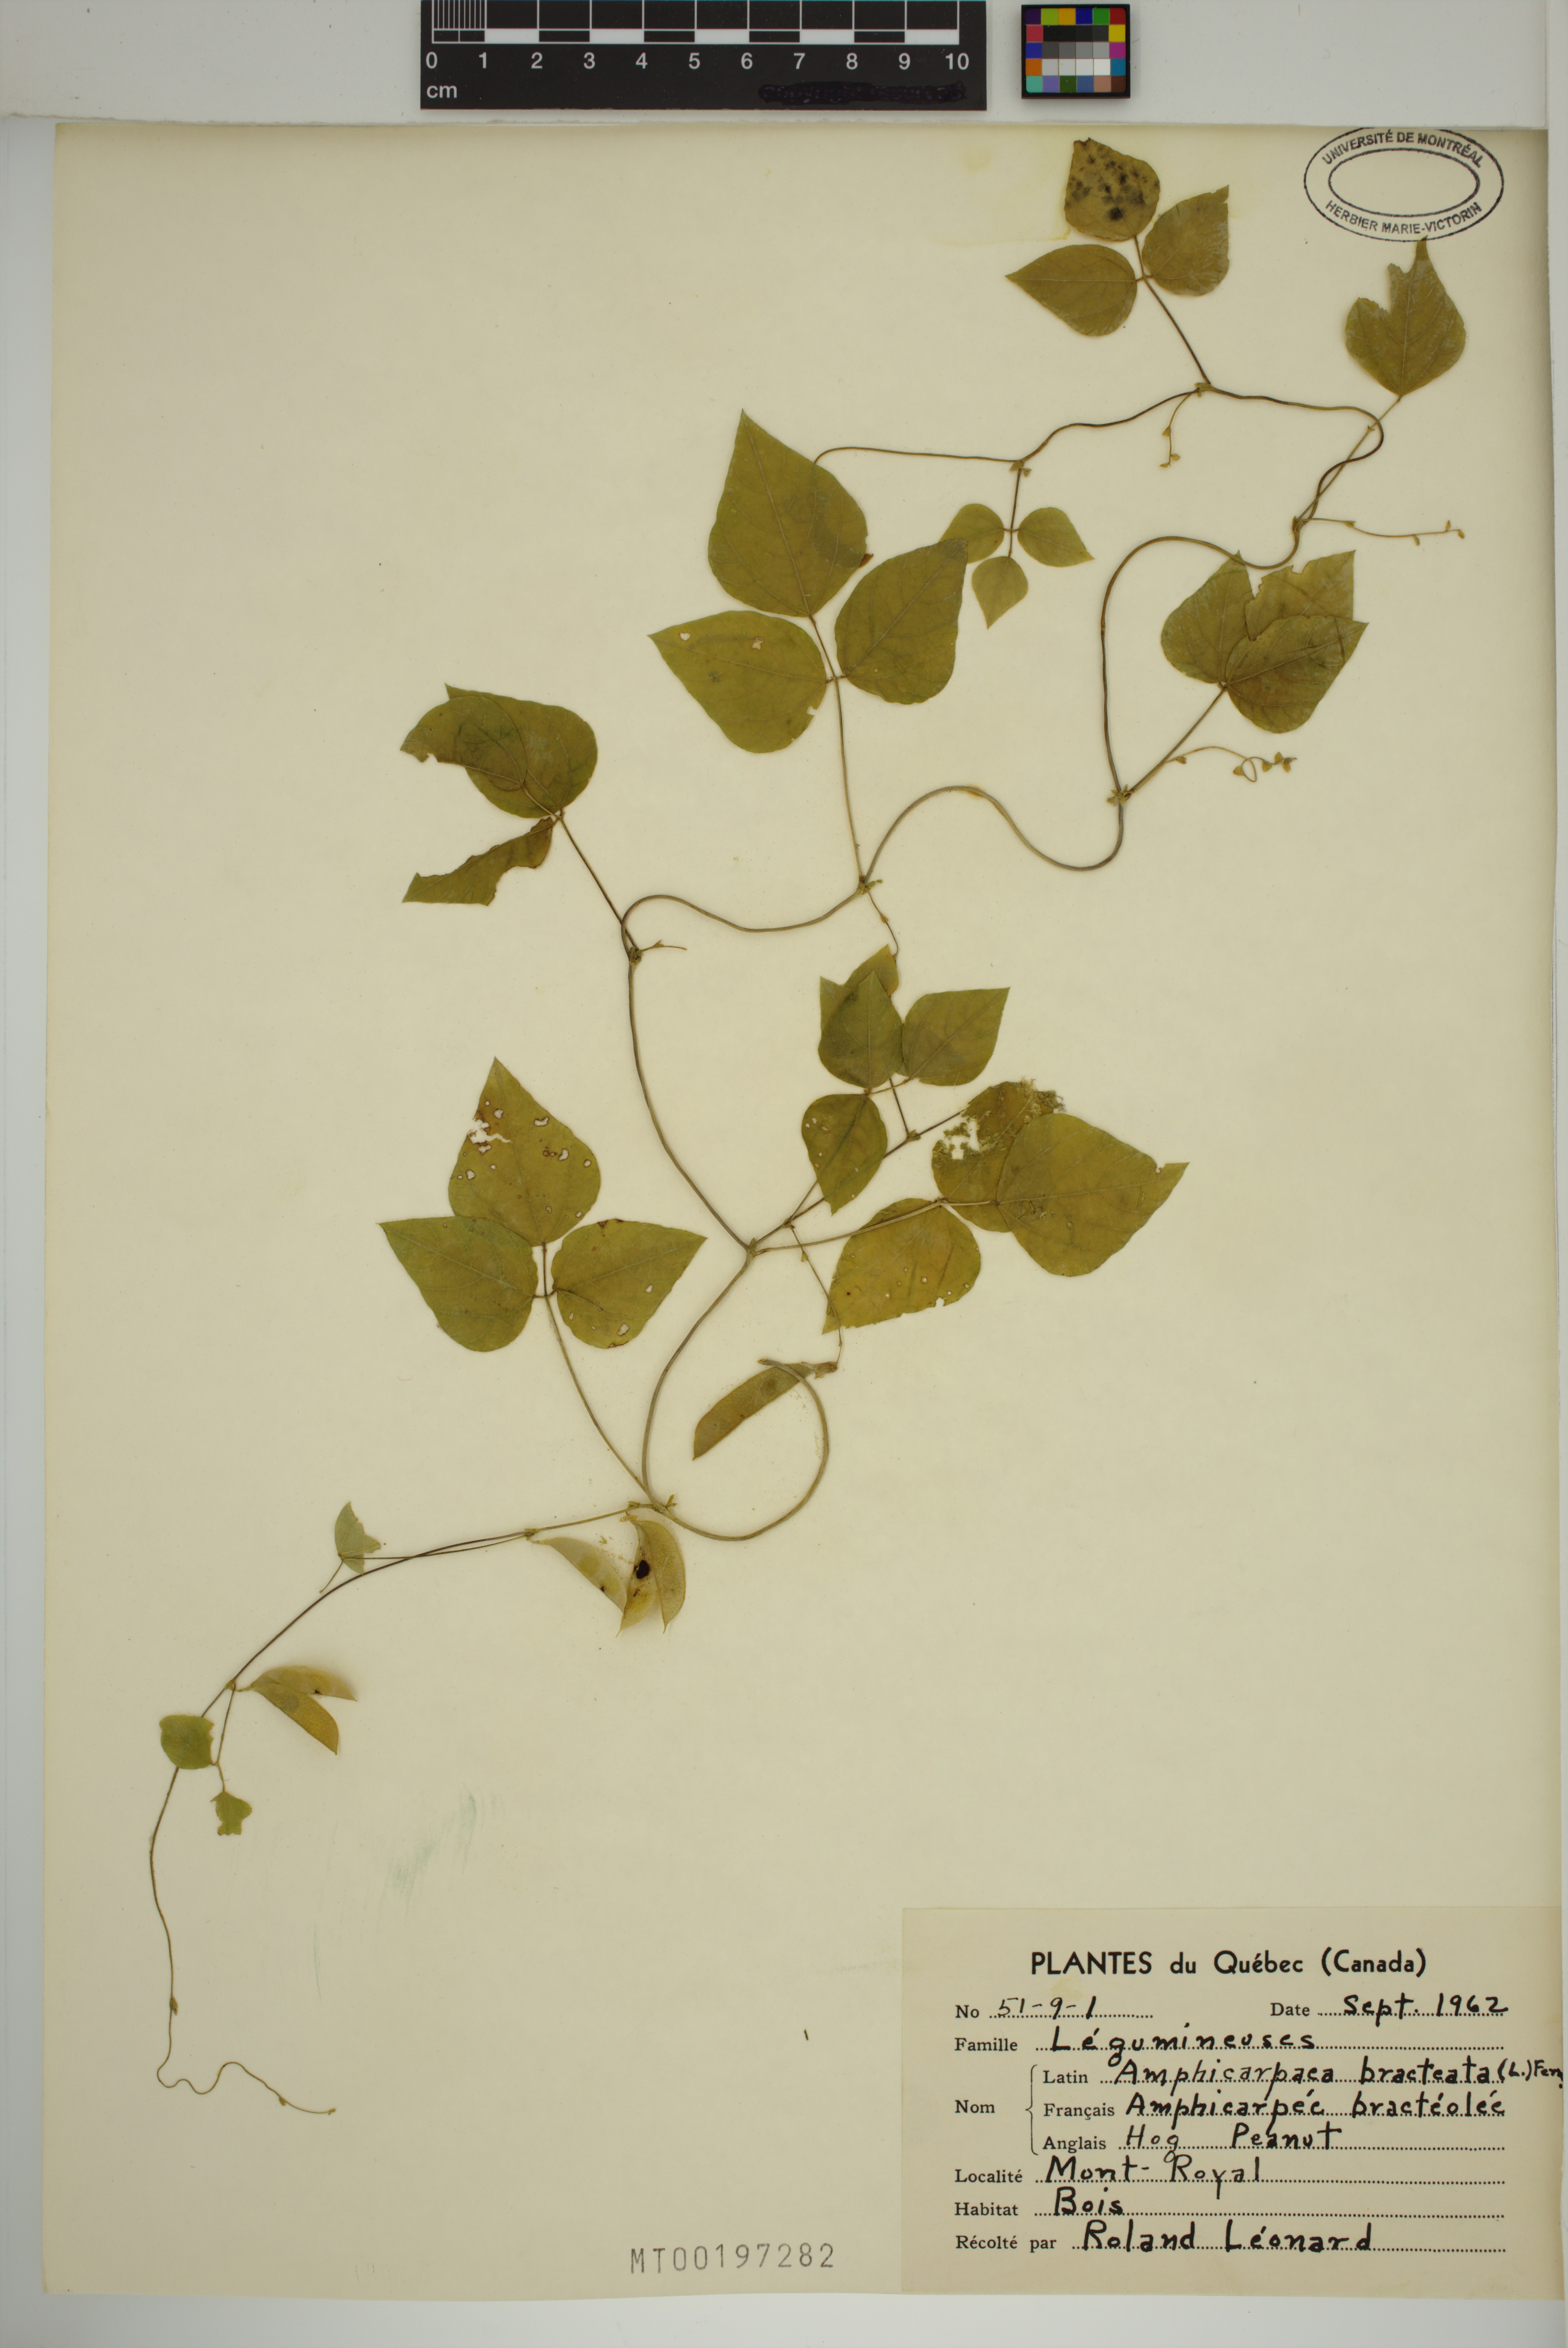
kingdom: Plantae
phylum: Tracheophyta
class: Magnoliopsida
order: Fabales
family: Fabaceae
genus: Amphicarpaea
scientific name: Amphicarpaea bracteata
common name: American hog peanut
